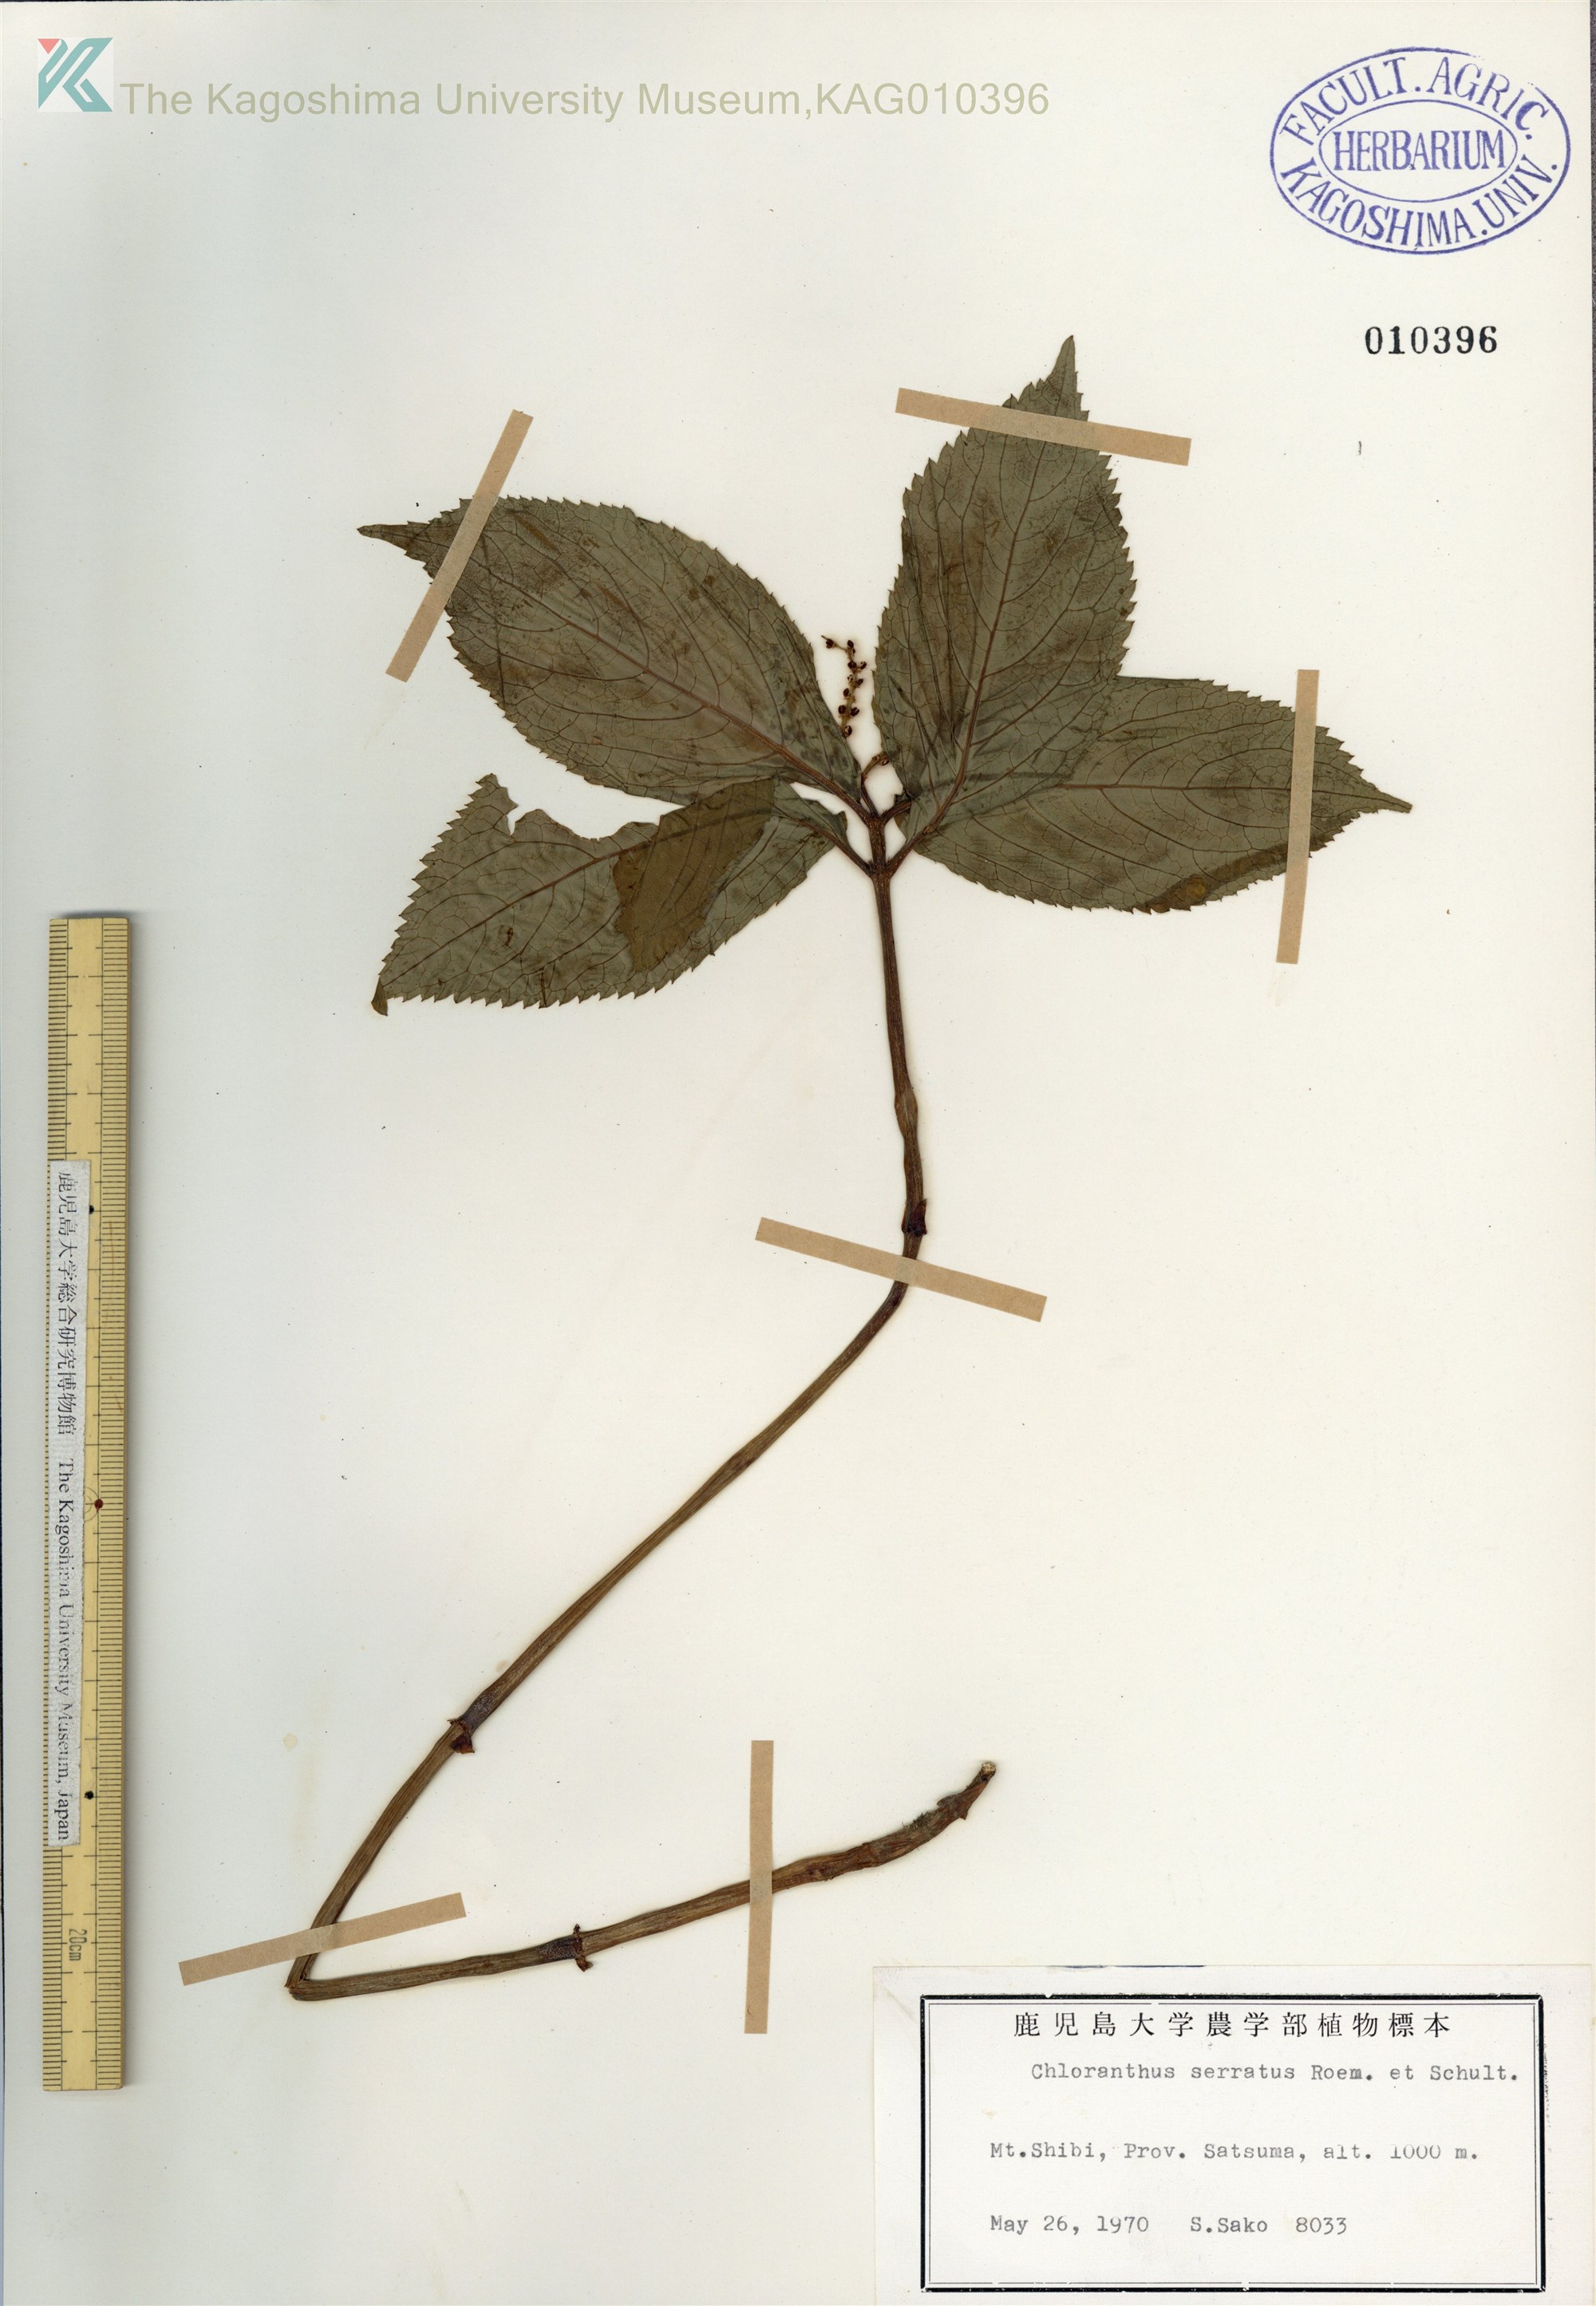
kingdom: Plantae
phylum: Tracheophyta
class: Magnoliopsida
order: Chloranthales
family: Chloranthaceae
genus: Chloranthus
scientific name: Chloranthus serratus
